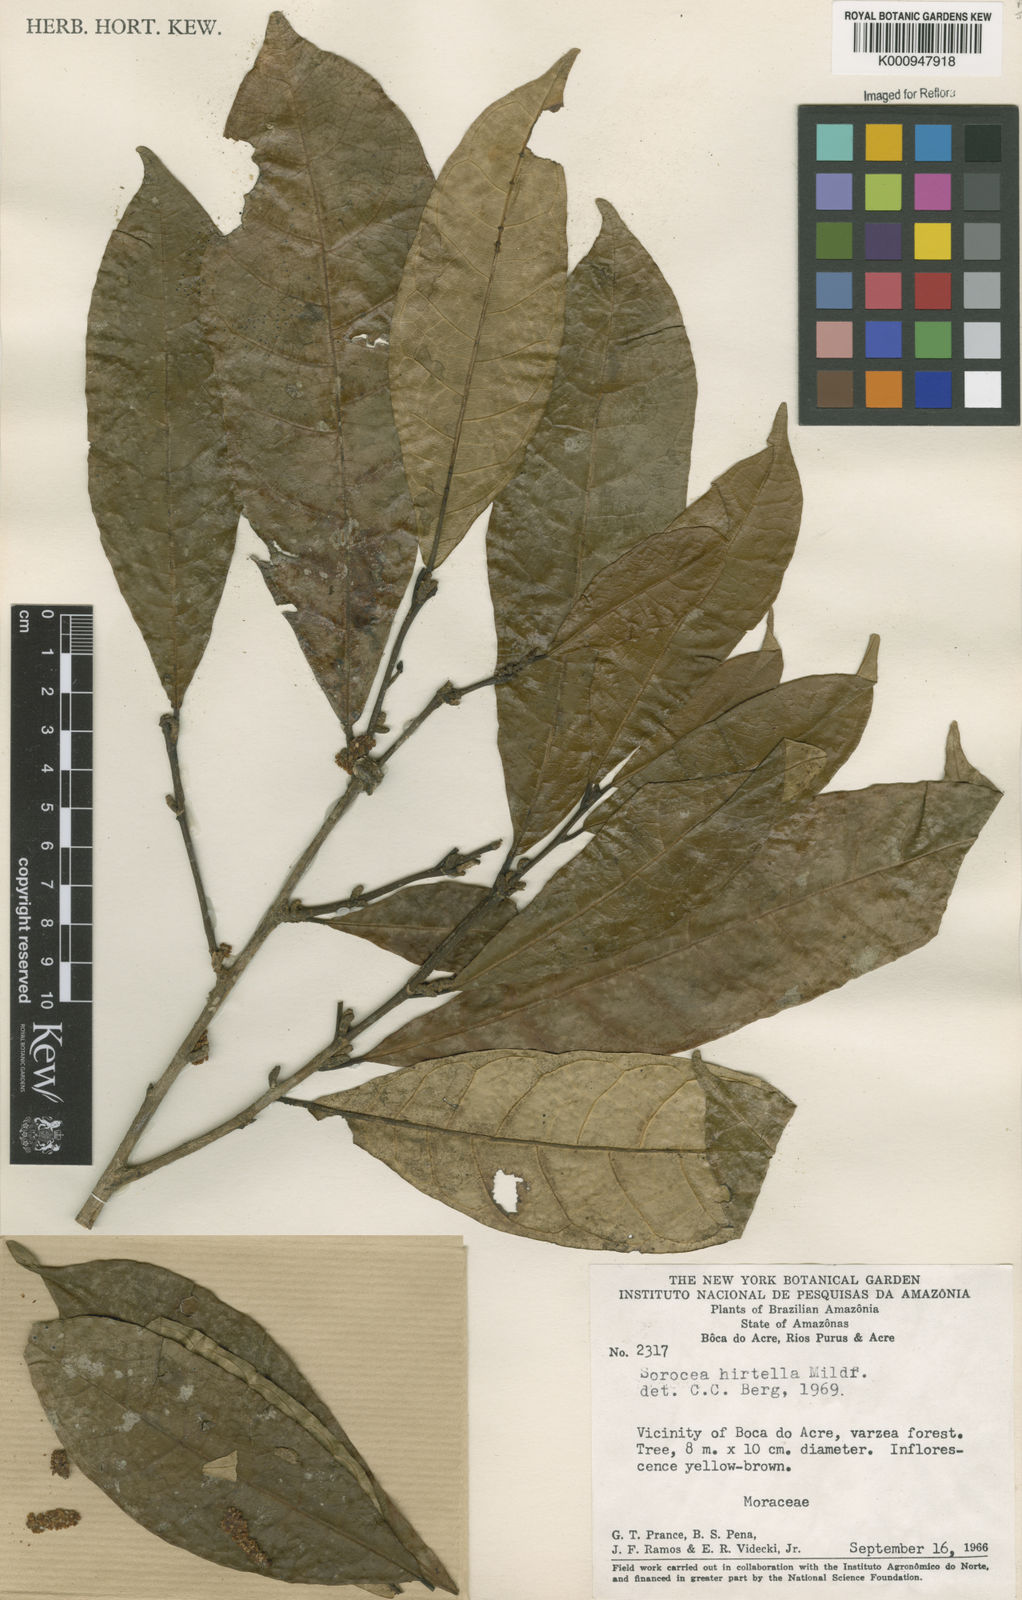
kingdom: Plantae
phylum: Tracheophyta
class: Magnoliopsida
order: Rosales
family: Moraceae
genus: Sorocea
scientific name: Sorocea pubivena
